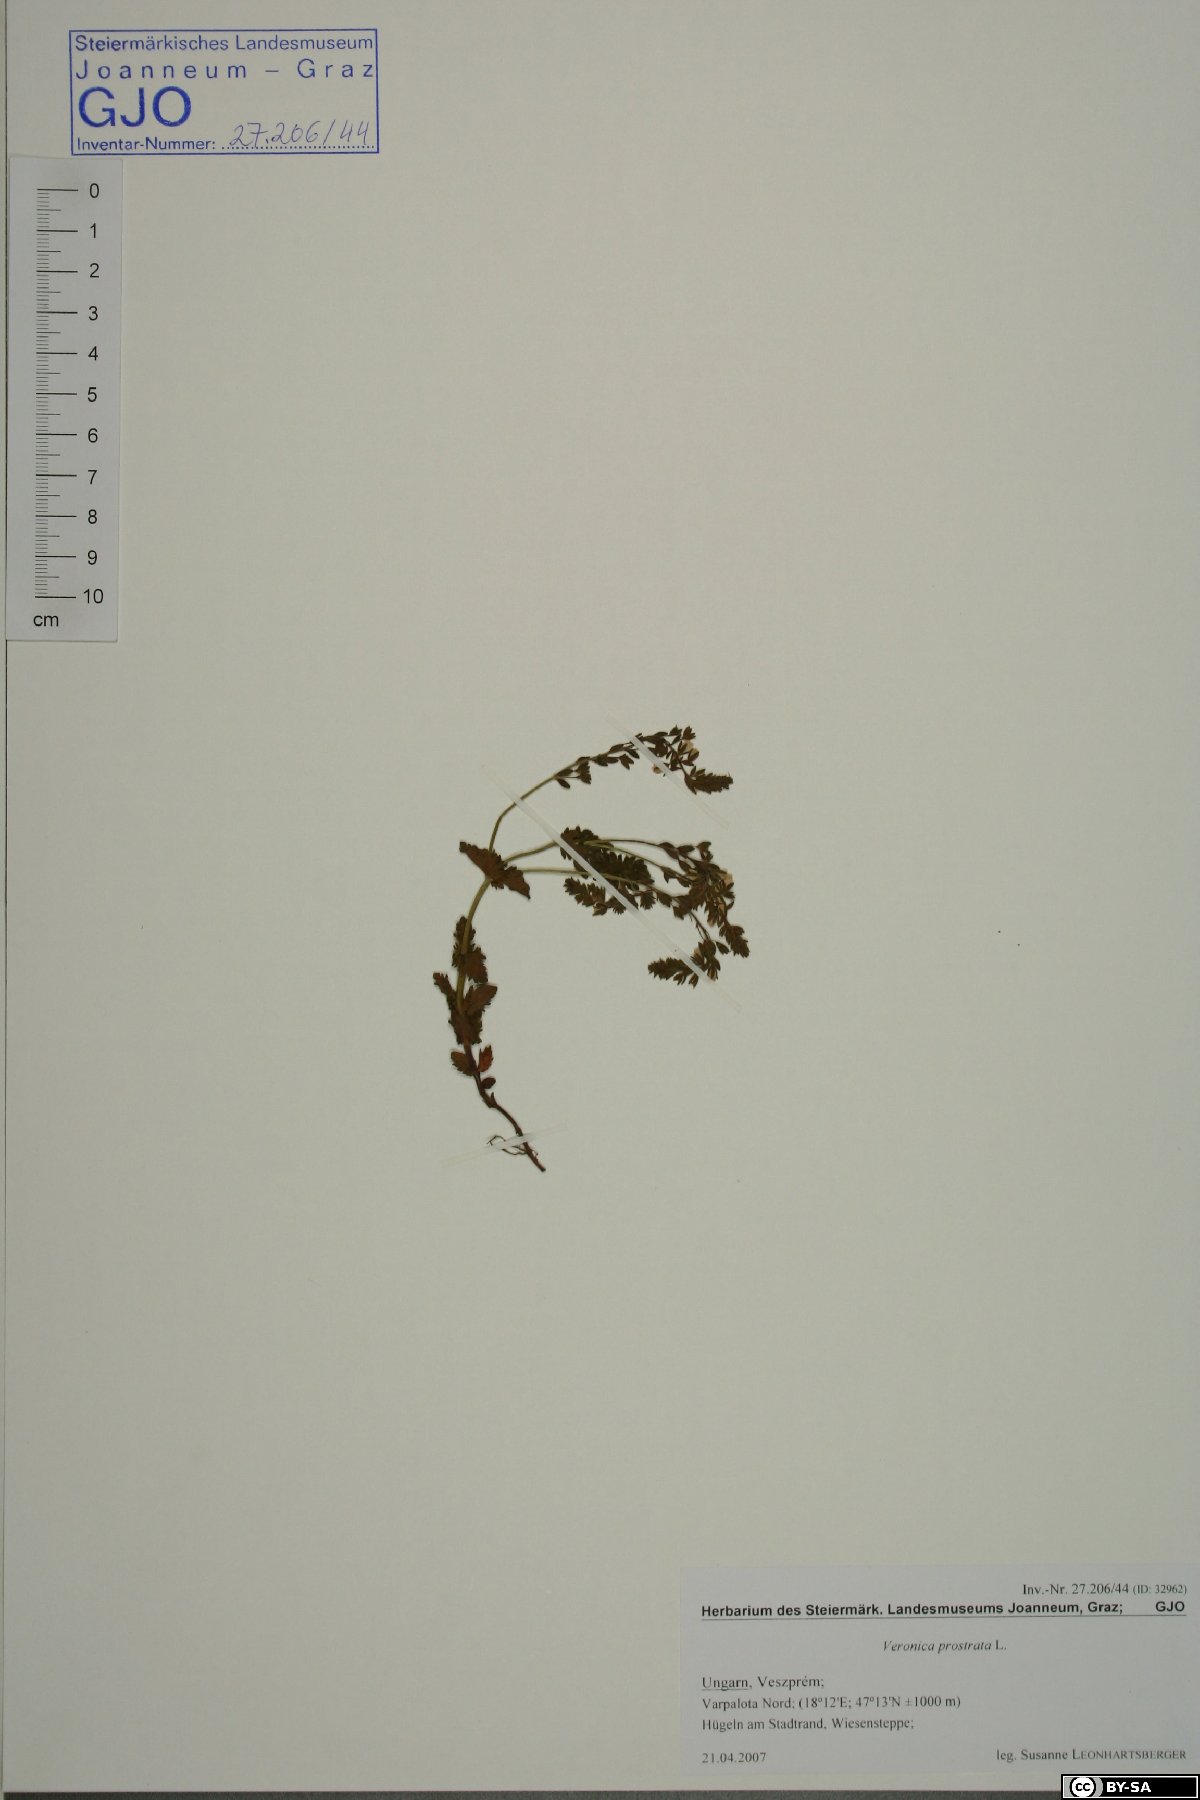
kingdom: Plantae
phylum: Tracheophyta
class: Magnoliopsida
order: Lamiales
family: Plantaginaceae
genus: Veronica
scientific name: Veronica prostrata
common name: Prostrate speedwell
